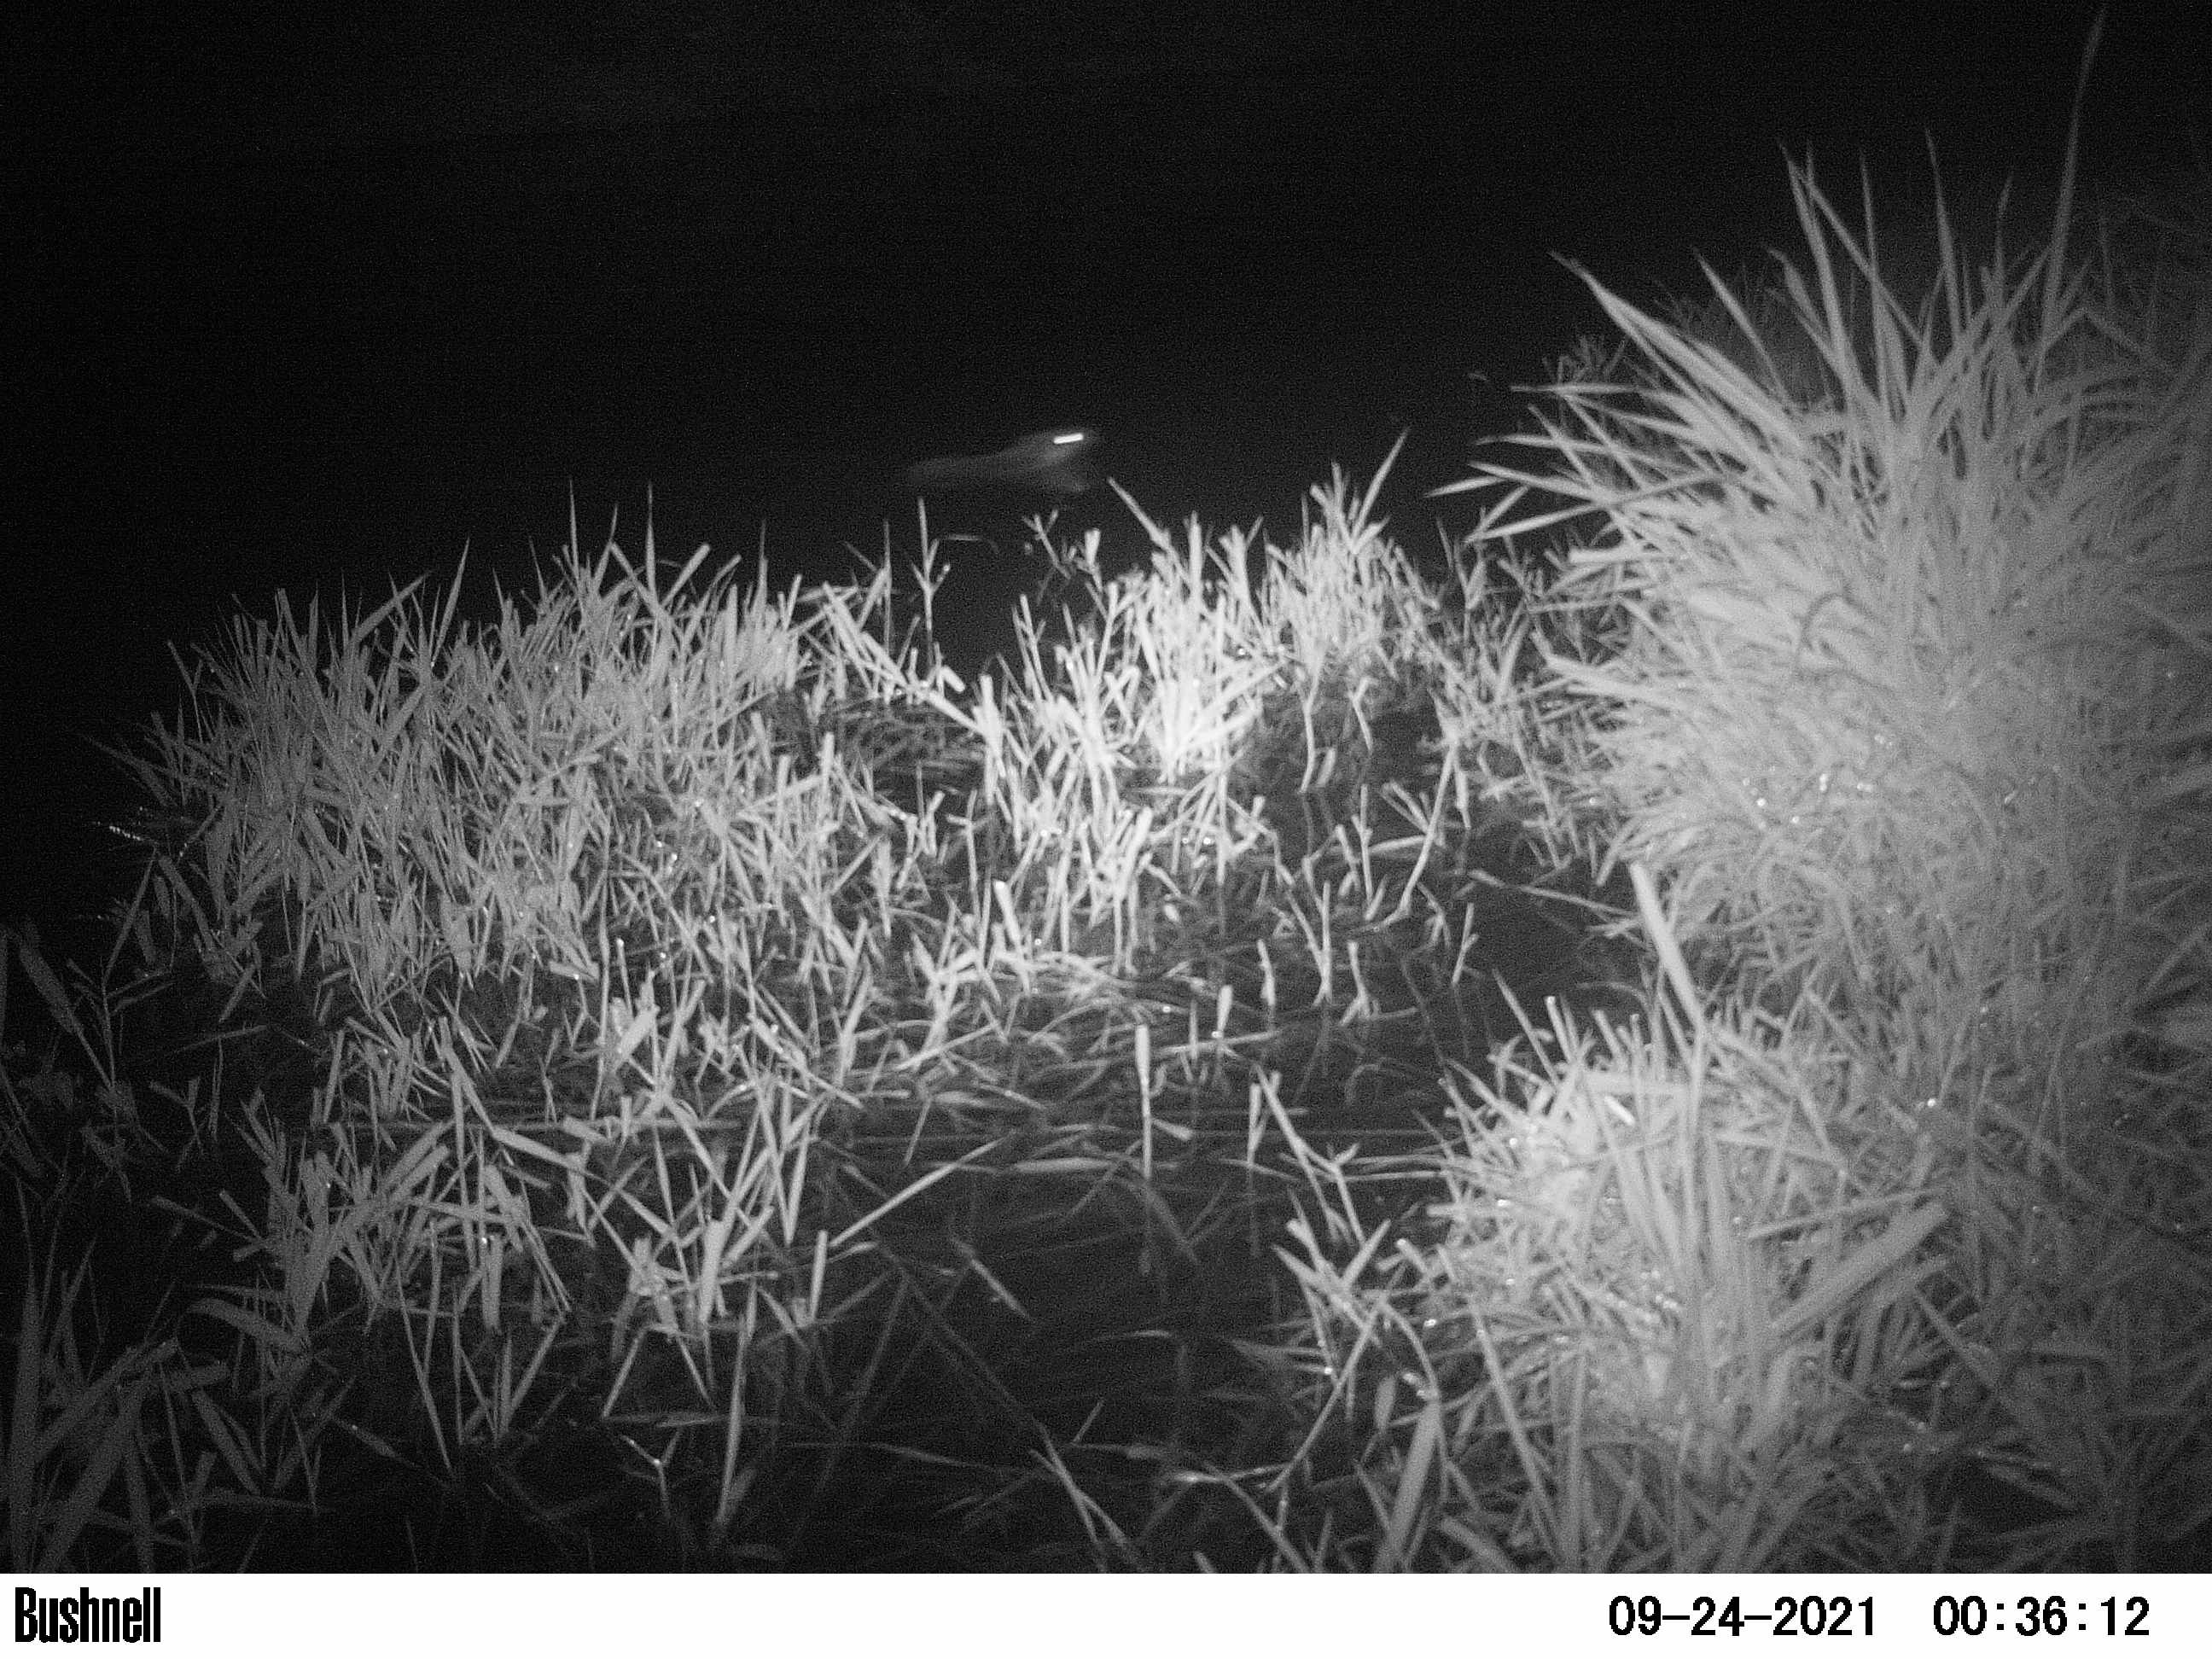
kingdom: Animalia
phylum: Chordata
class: Mammalia
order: Rodentia
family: Muridae
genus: Rattus
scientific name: Rattus norvegicus
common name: Brown rat
